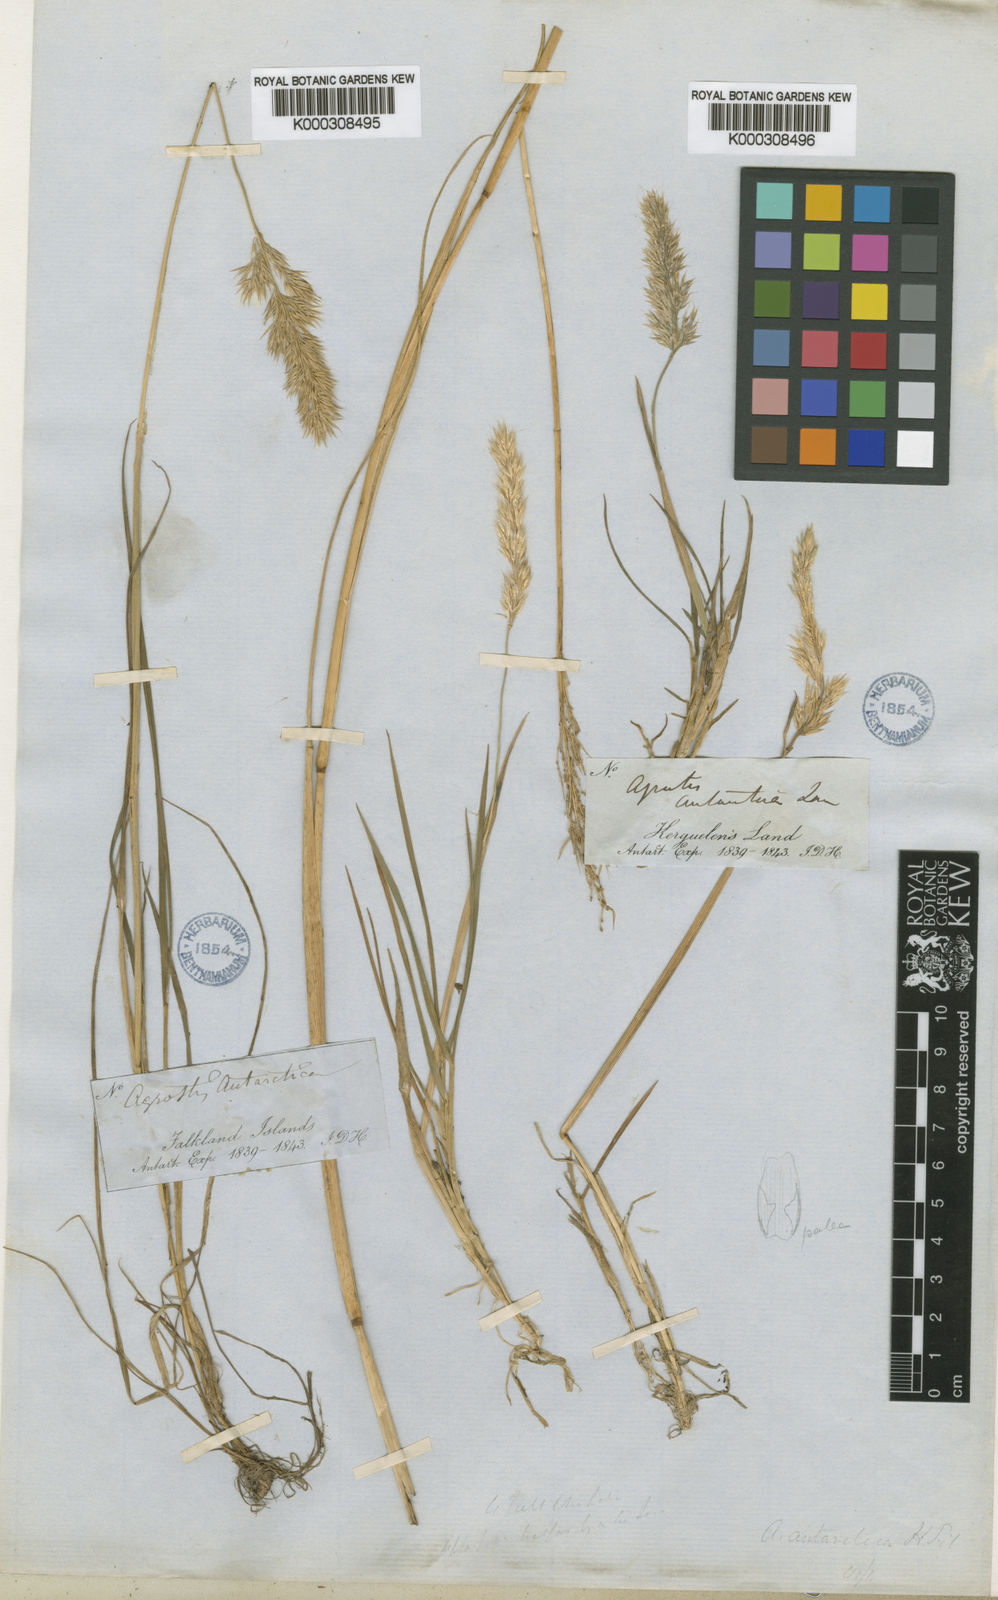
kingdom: Plantae
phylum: Tracheophyta
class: Liliopsida
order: Poales
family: Poaceae
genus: Polypogon
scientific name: Polypogon
